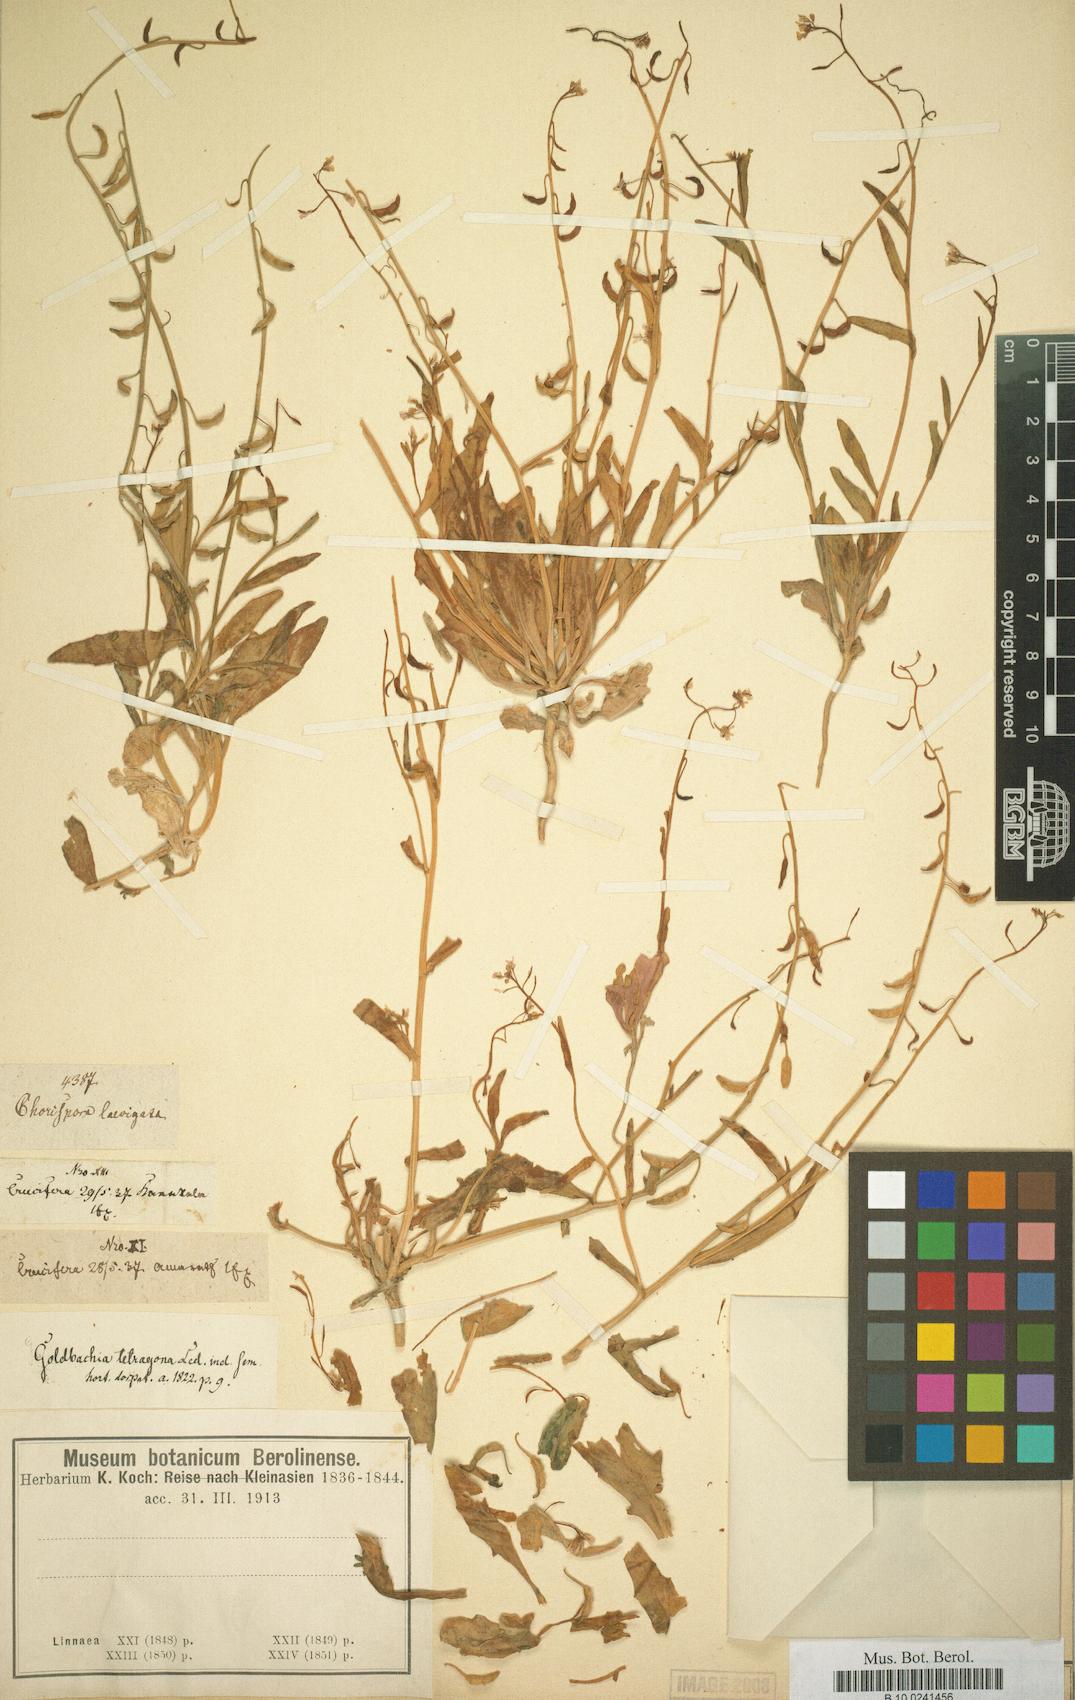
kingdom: Plantae
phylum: Tracheophyta
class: Magnoliopsida
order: Brassicales
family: Brassicaceae
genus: Goldbachia
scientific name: Goldbachia tetragona
